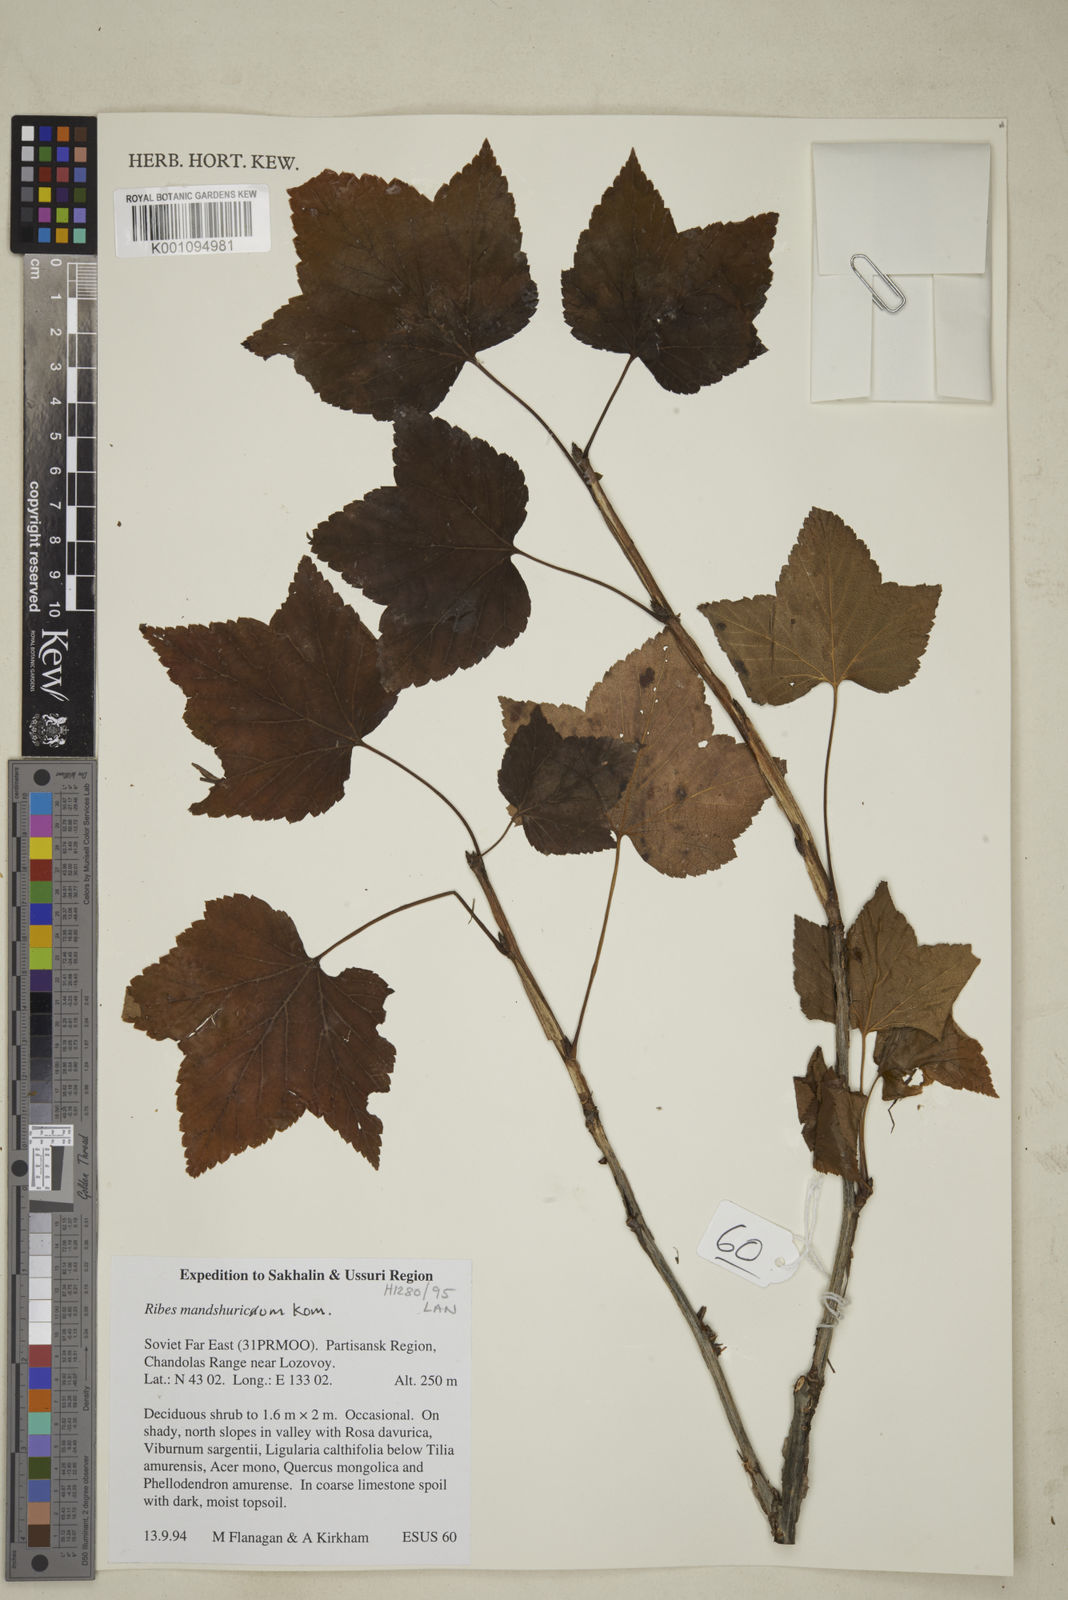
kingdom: Plantae
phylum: Tracheophyta
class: Magnoliopsida
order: Saxifragales
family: Grossulariaceae
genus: Ribes
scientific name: Ribes
